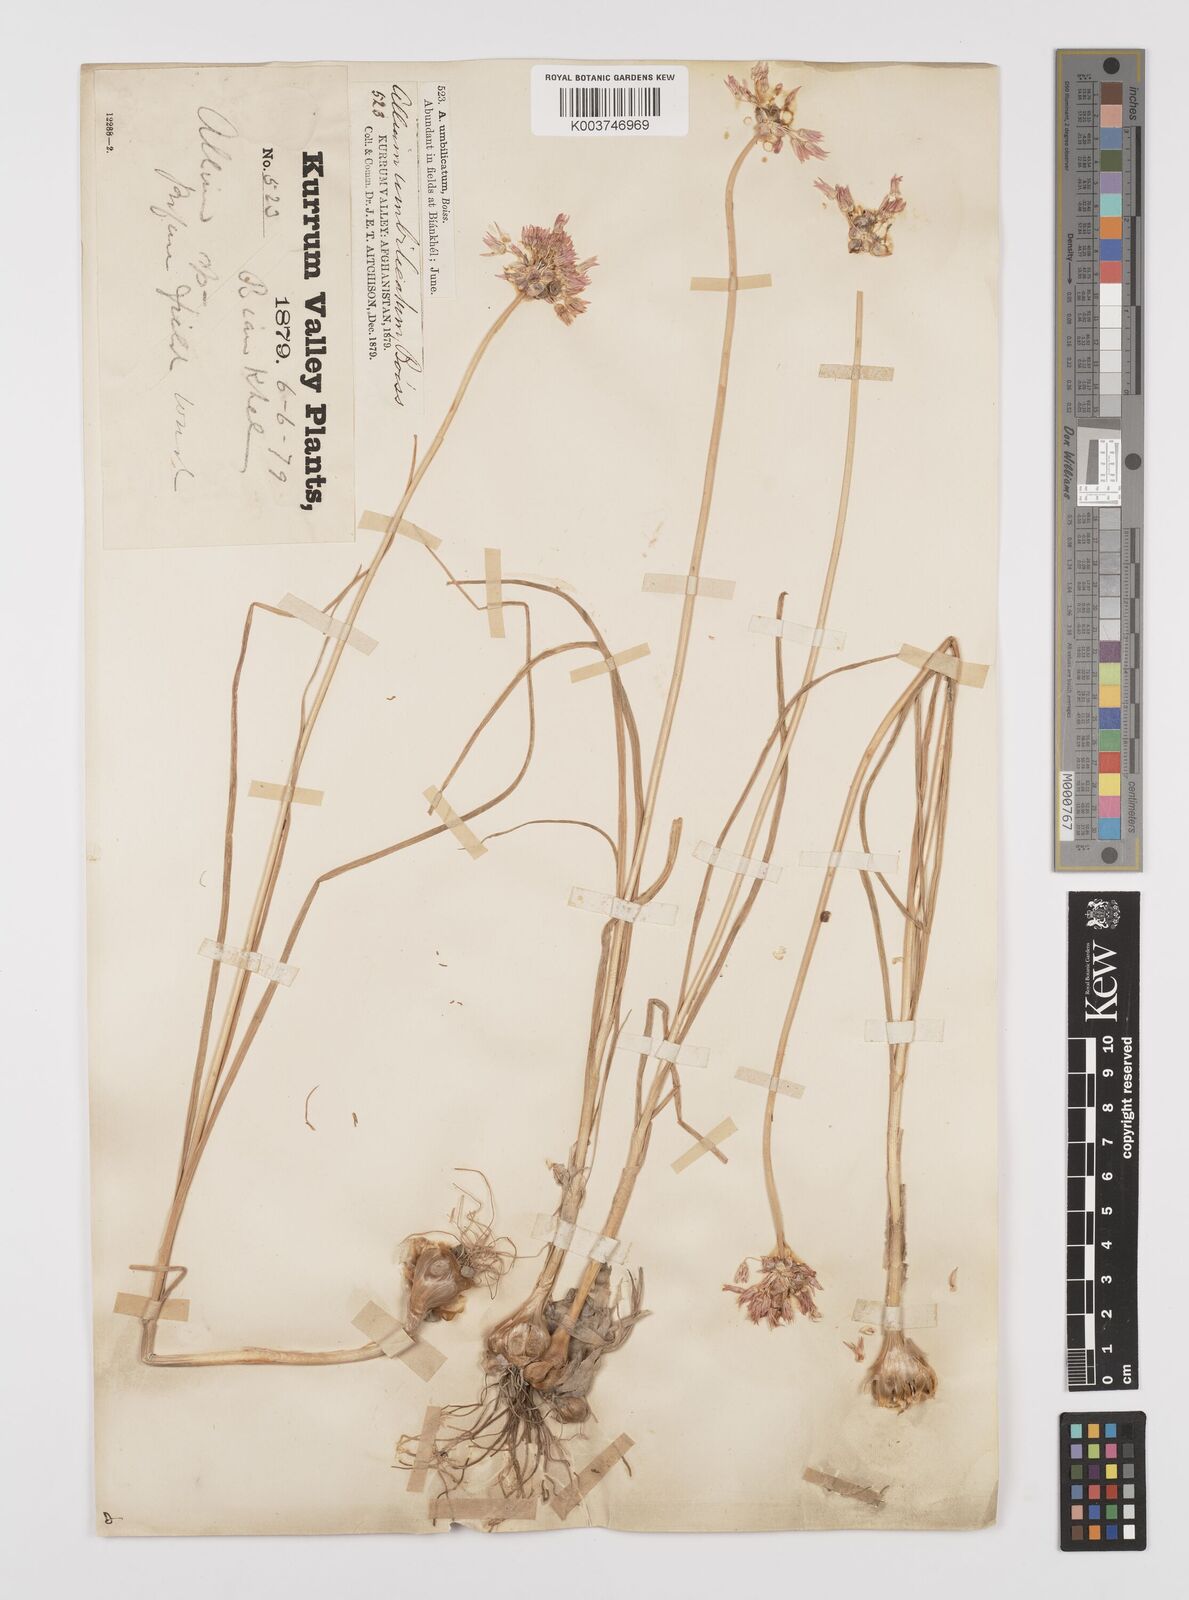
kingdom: Plantae
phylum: Tracheophyta
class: Liliopsida
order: Asparagales
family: Amaryllidaceae
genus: Allium
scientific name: Allium umbilicatum
